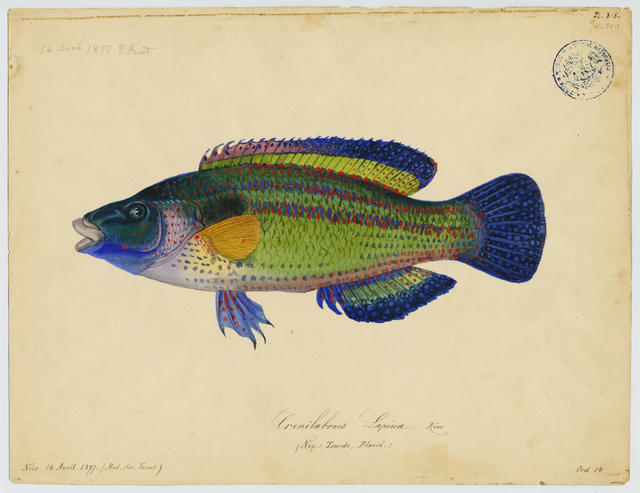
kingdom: Animalia
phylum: Chordata
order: Perciformes
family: Labridae
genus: Symphodus
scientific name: Symphodus tinca
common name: Peacock wrasse
